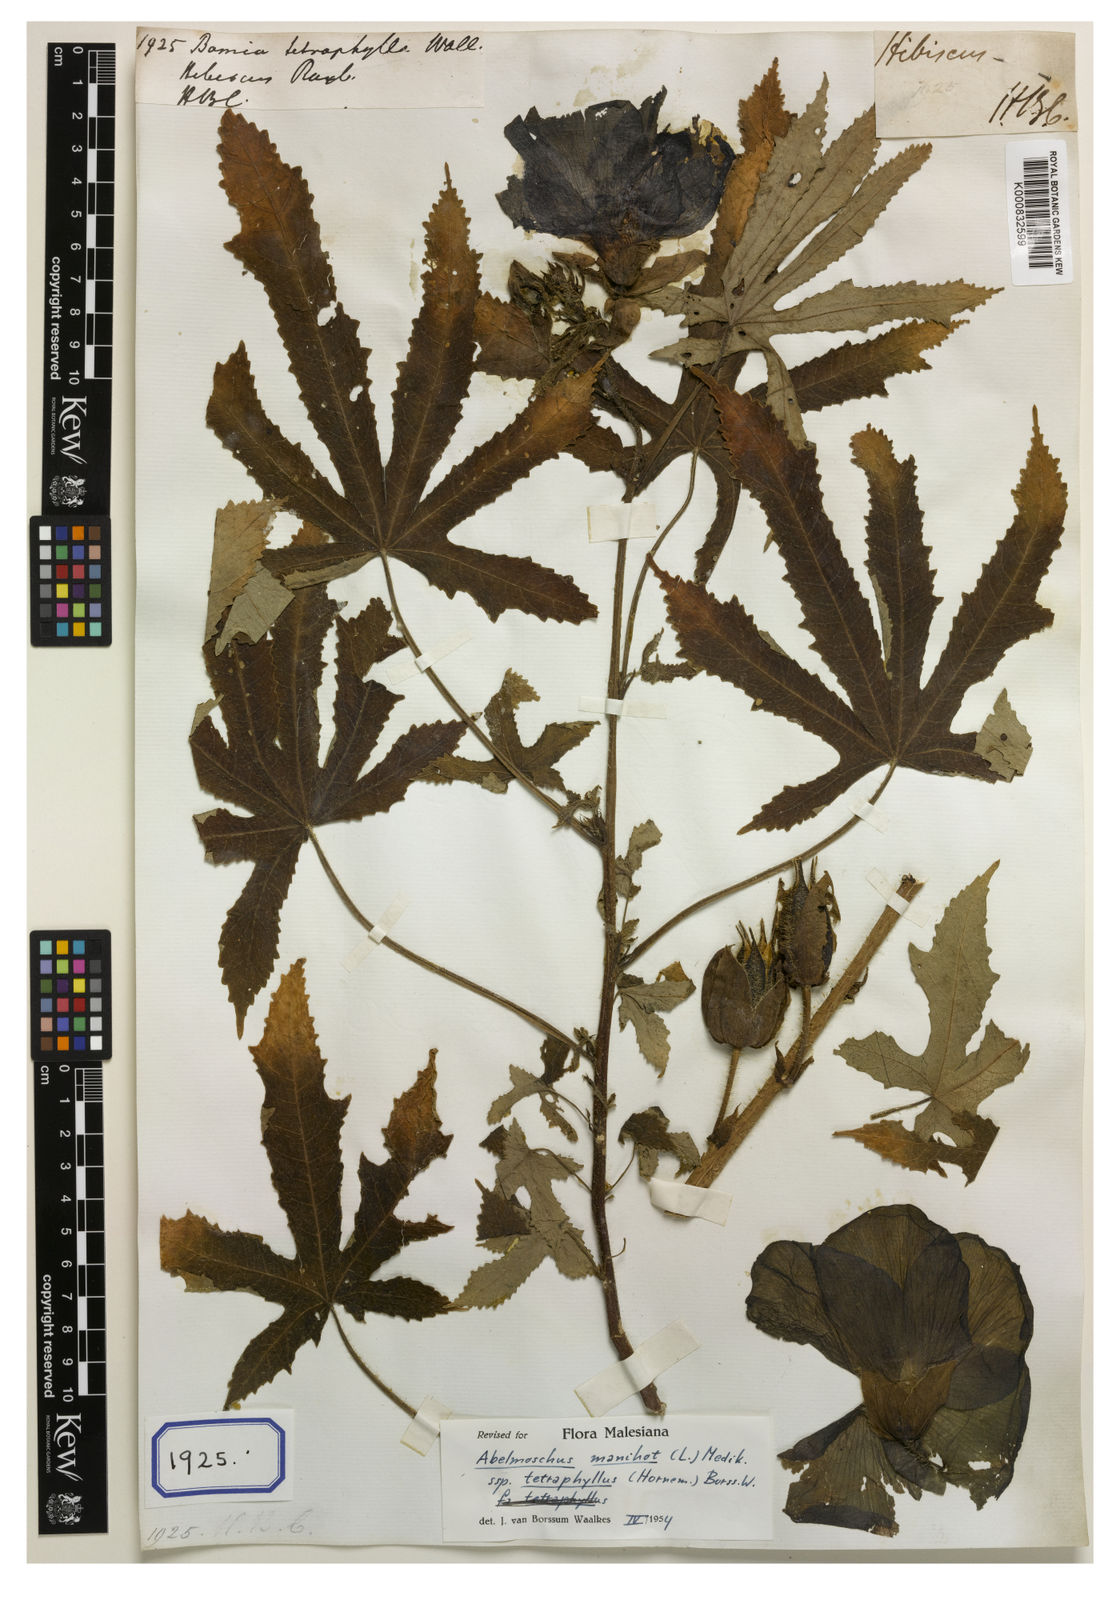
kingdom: Plantae
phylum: Tracheophyta
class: Magnoliopsida
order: Malvales
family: Malvaceae
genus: Abelmoschus
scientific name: Abelmoschus manihot
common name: Sunset muskmallow
